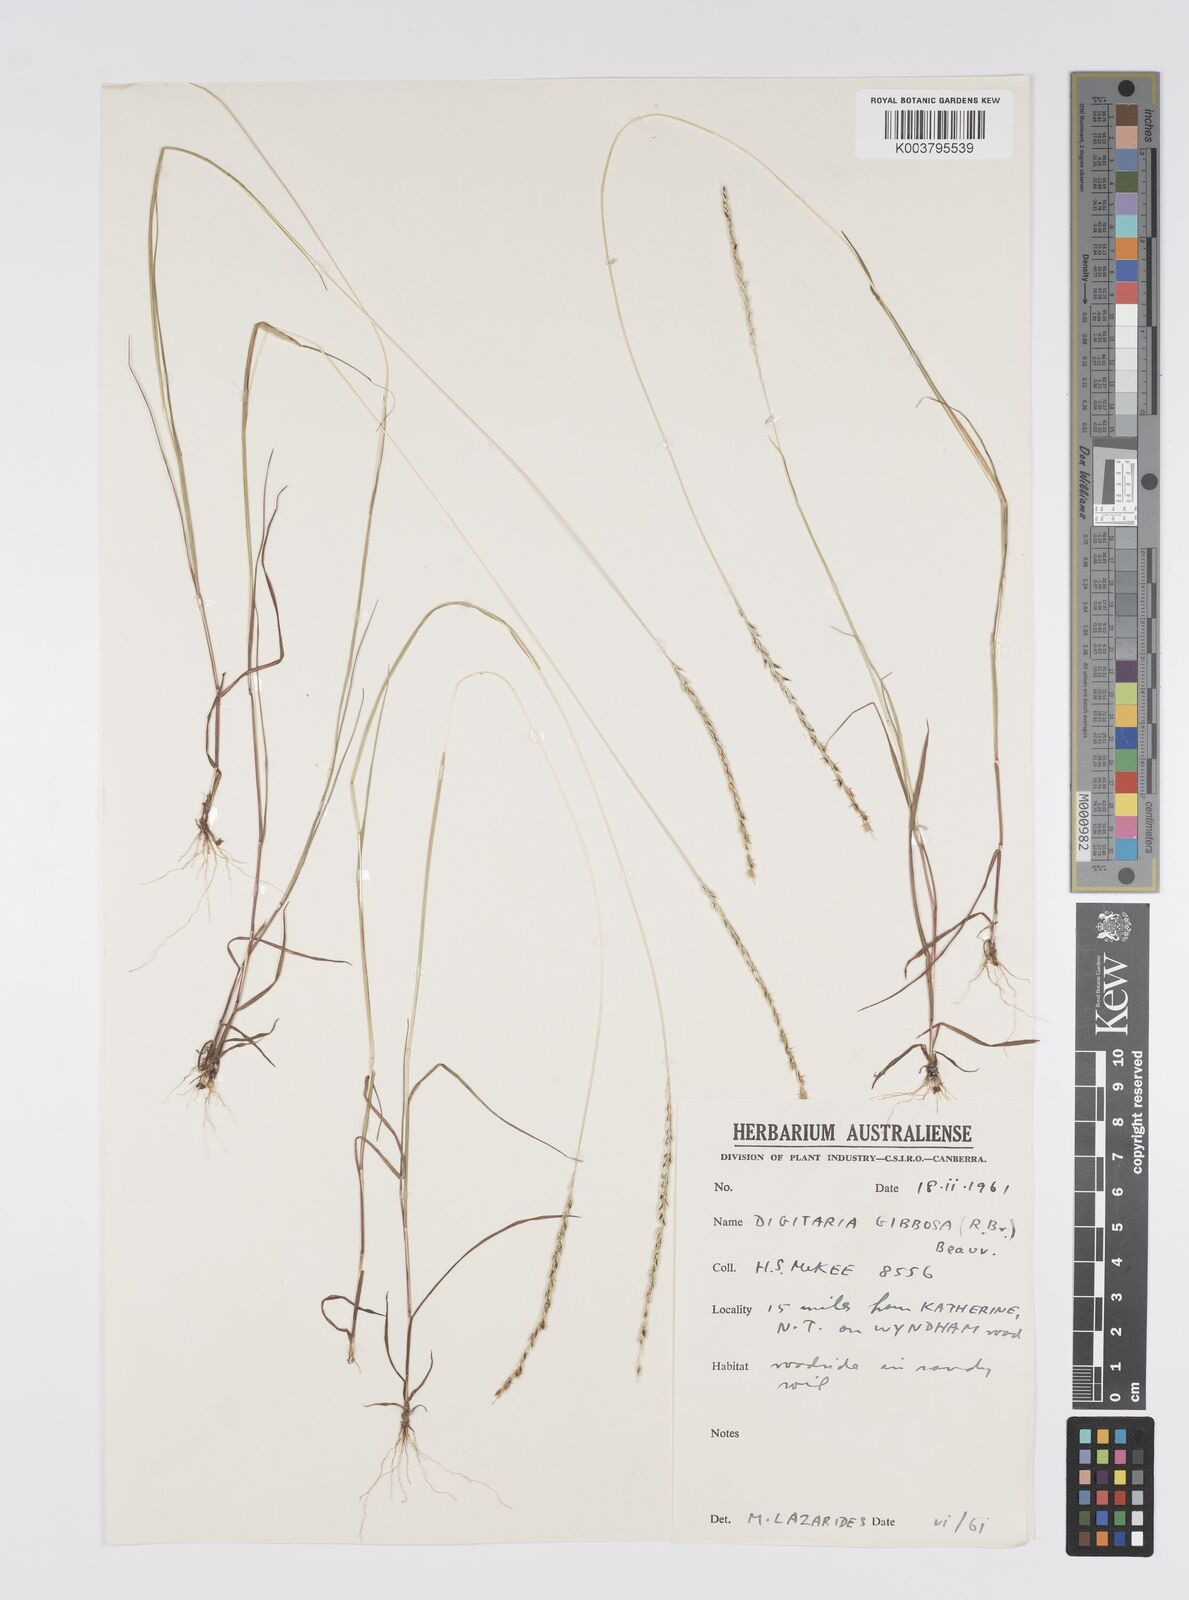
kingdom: Plantae
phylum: Tracheophyta
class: Liliopsida
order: Poales
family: Poaceae
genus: Digitaria
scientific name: Digitaria gibbosa
